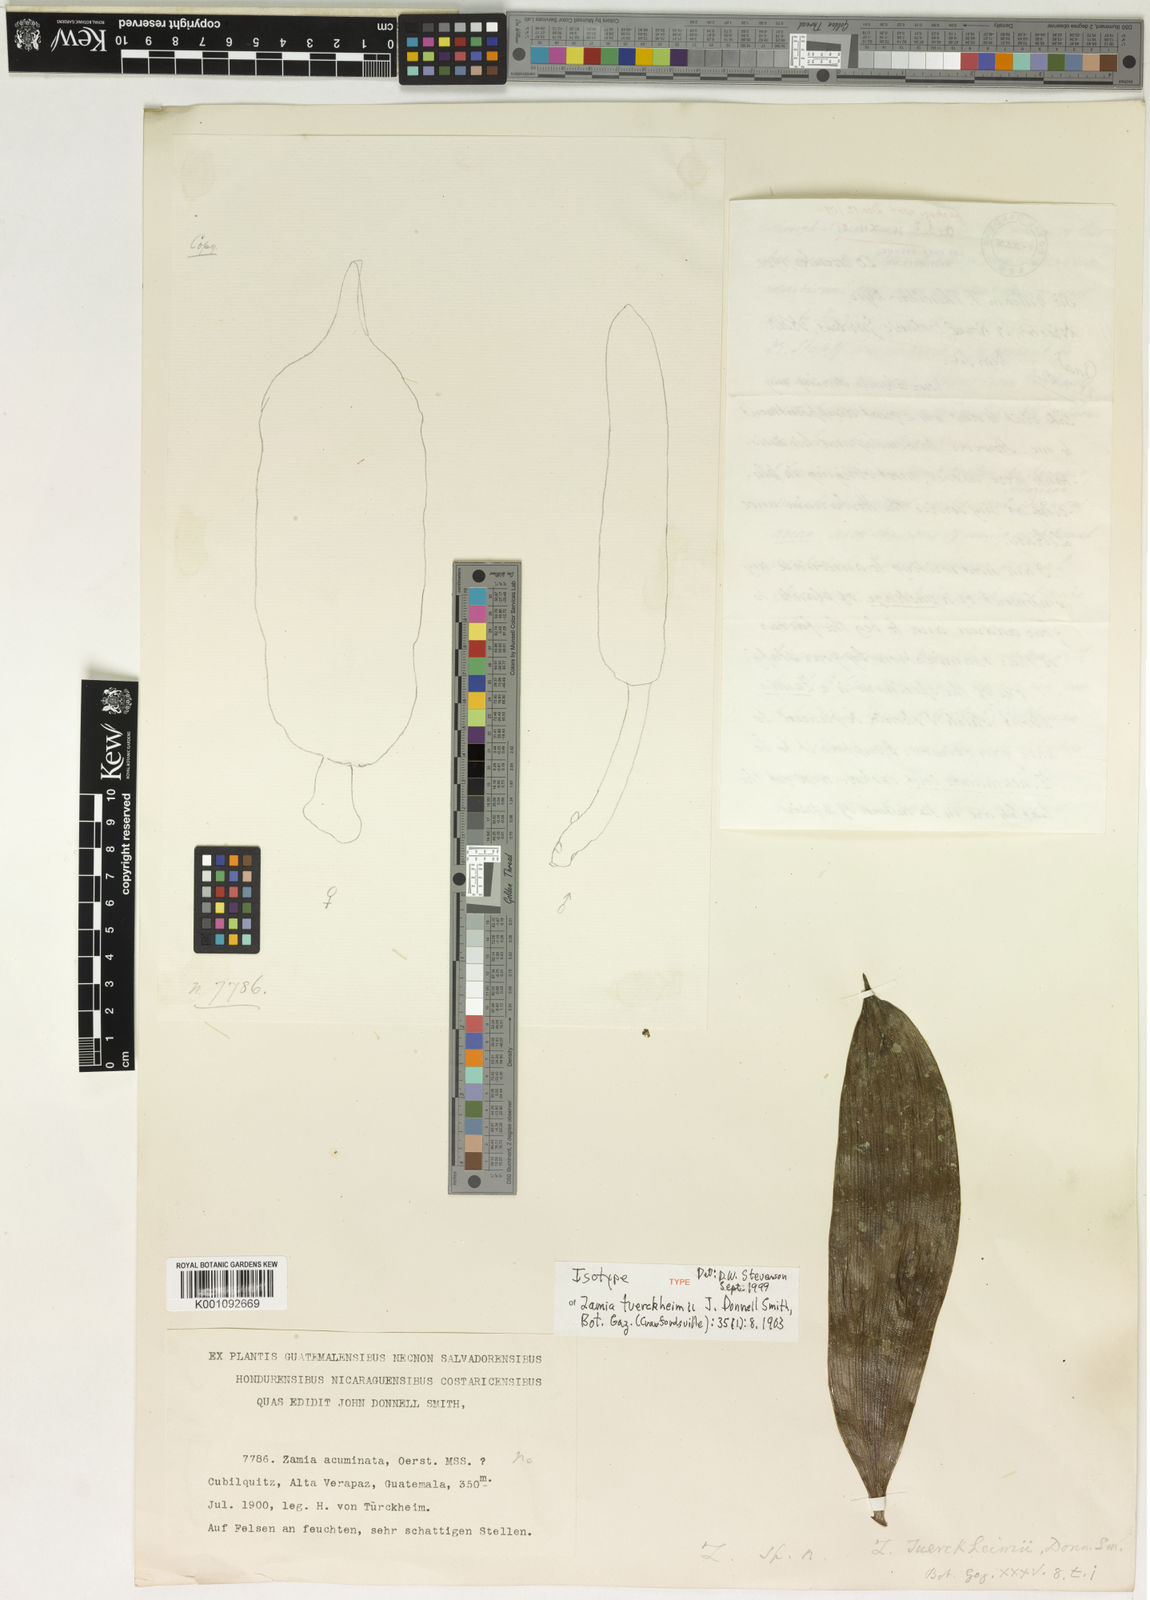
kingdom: Plantae
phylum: Tracheophyta
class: Cycadopsida
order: Cycadales
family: Zamiaceae
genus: Zamia
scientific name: Zamia tuerckheimii
